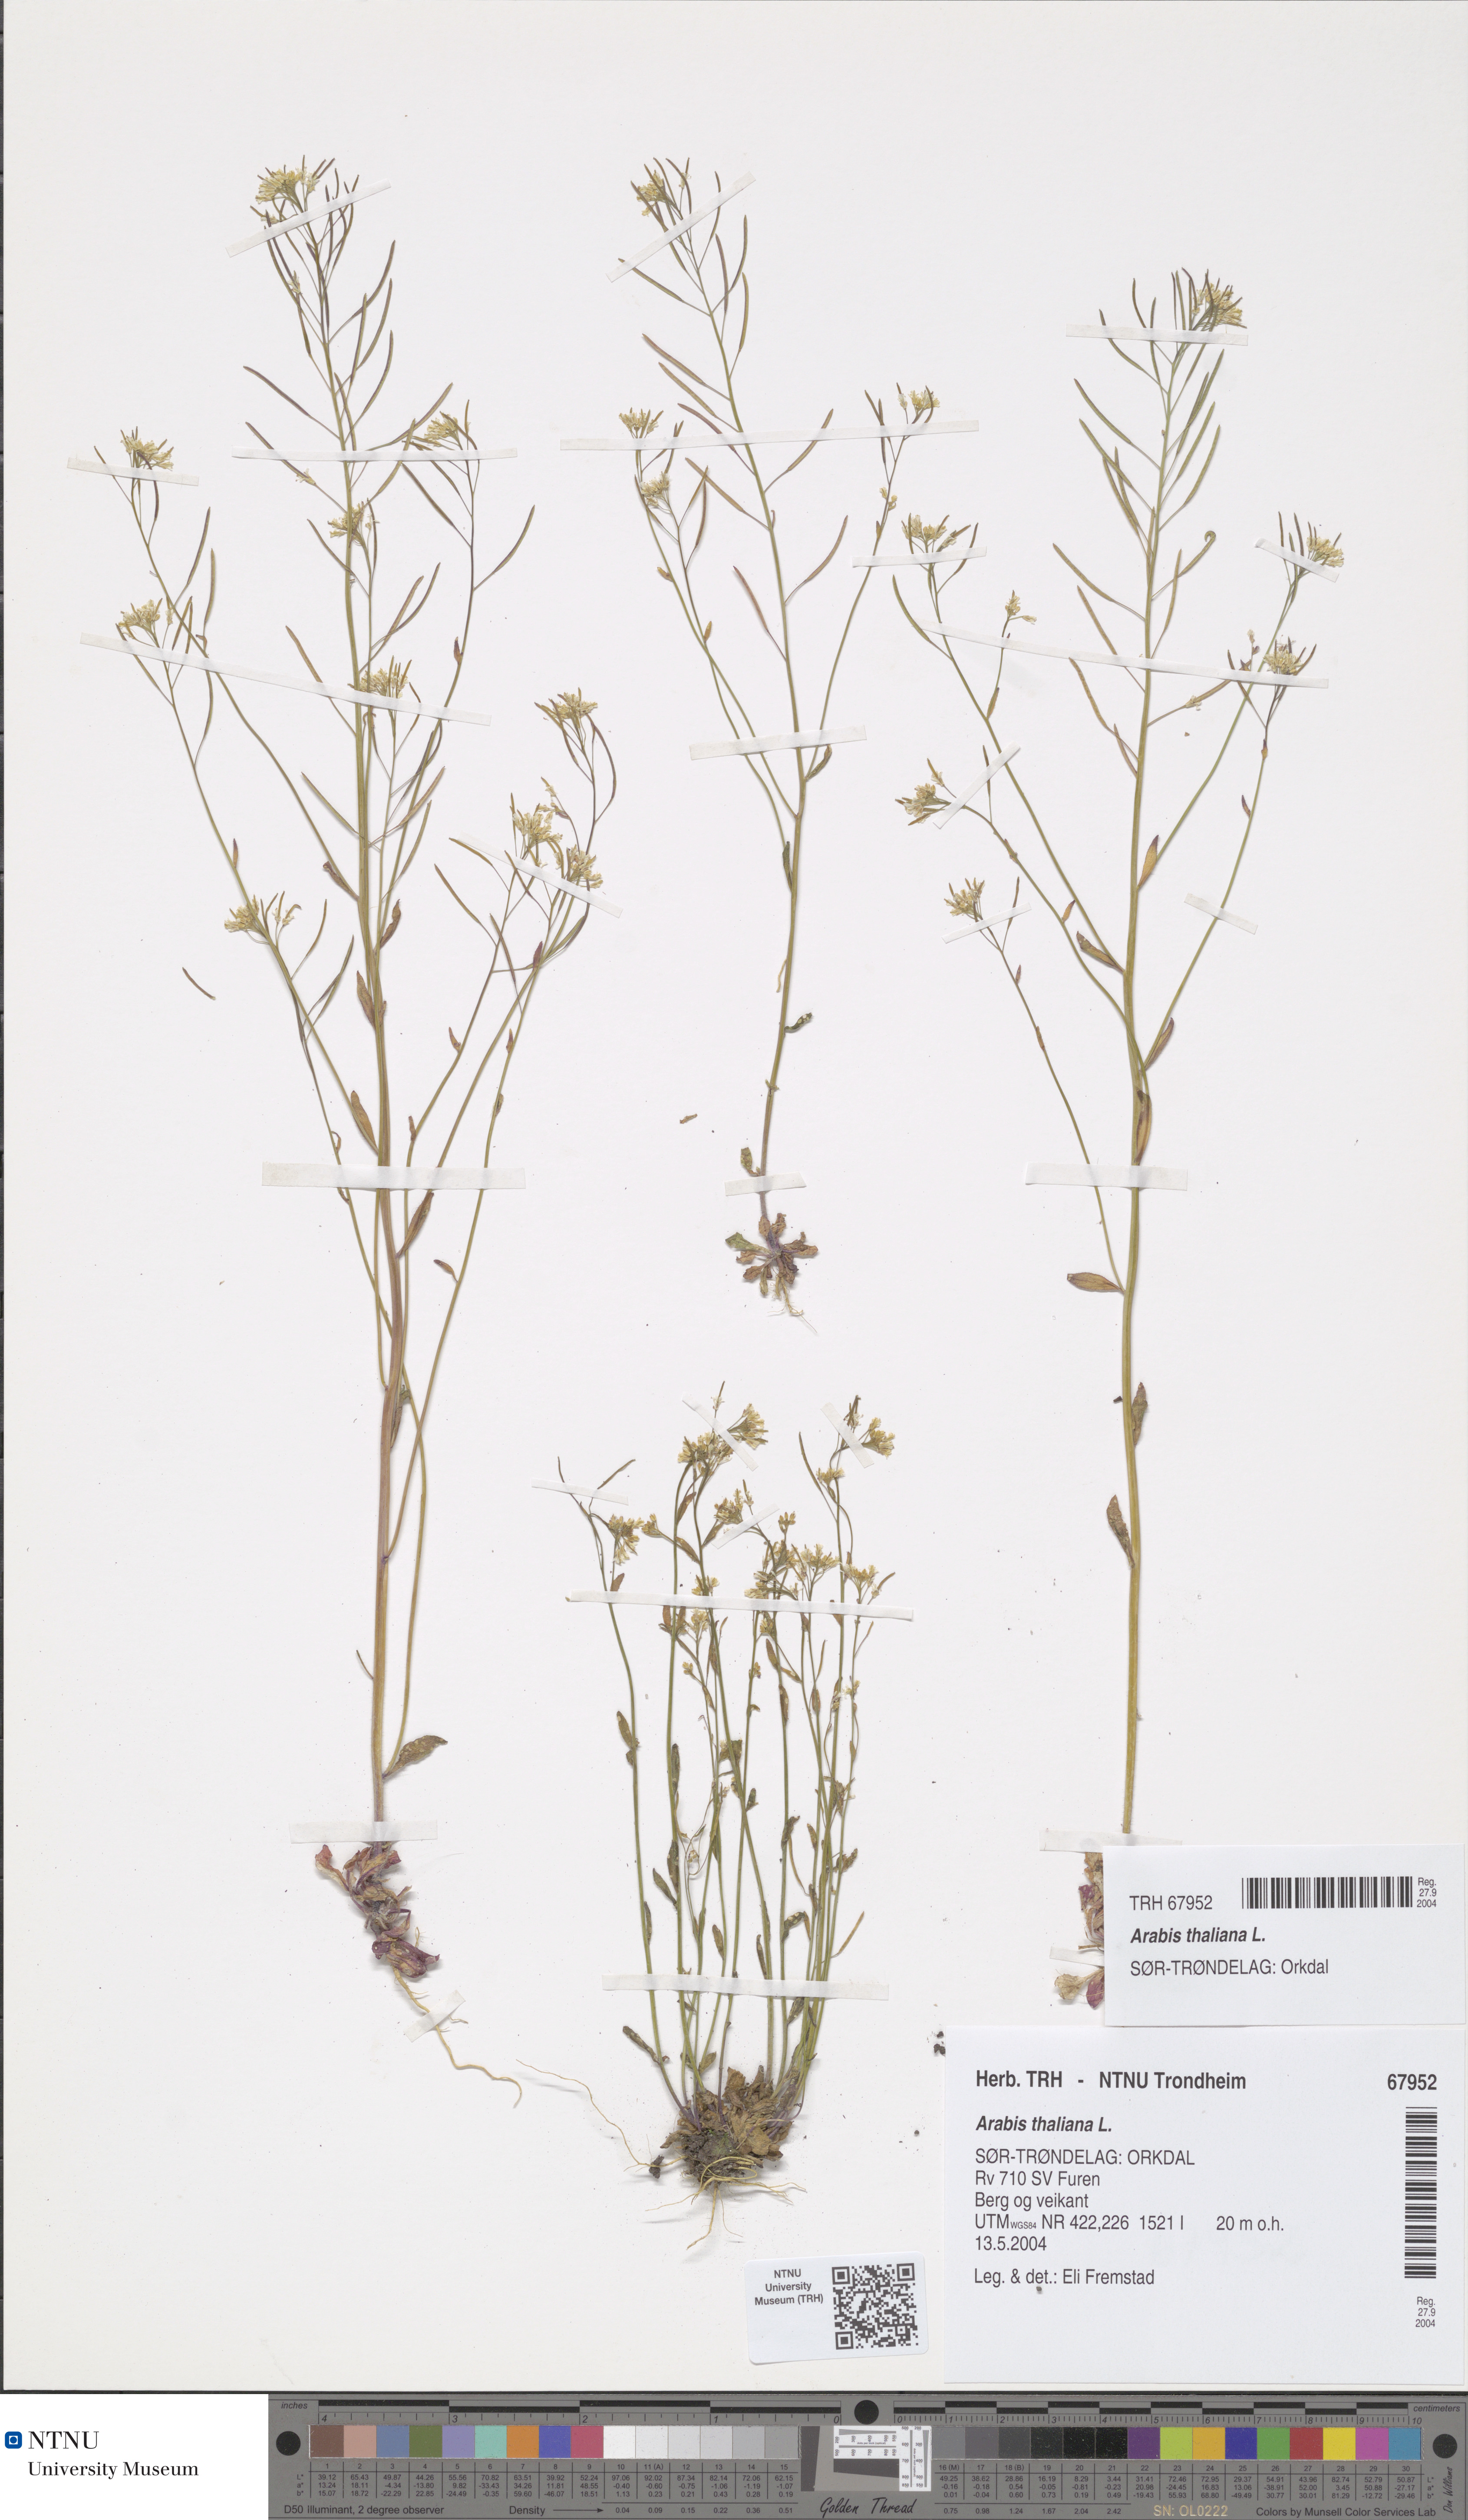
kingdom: Plantae
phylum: Tracheophyta
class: Magnoliopsida
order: Brassicales
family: Brassicaceae
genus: Arabidopsis
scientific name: Arabidopsis thaliana
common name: Thale cress
